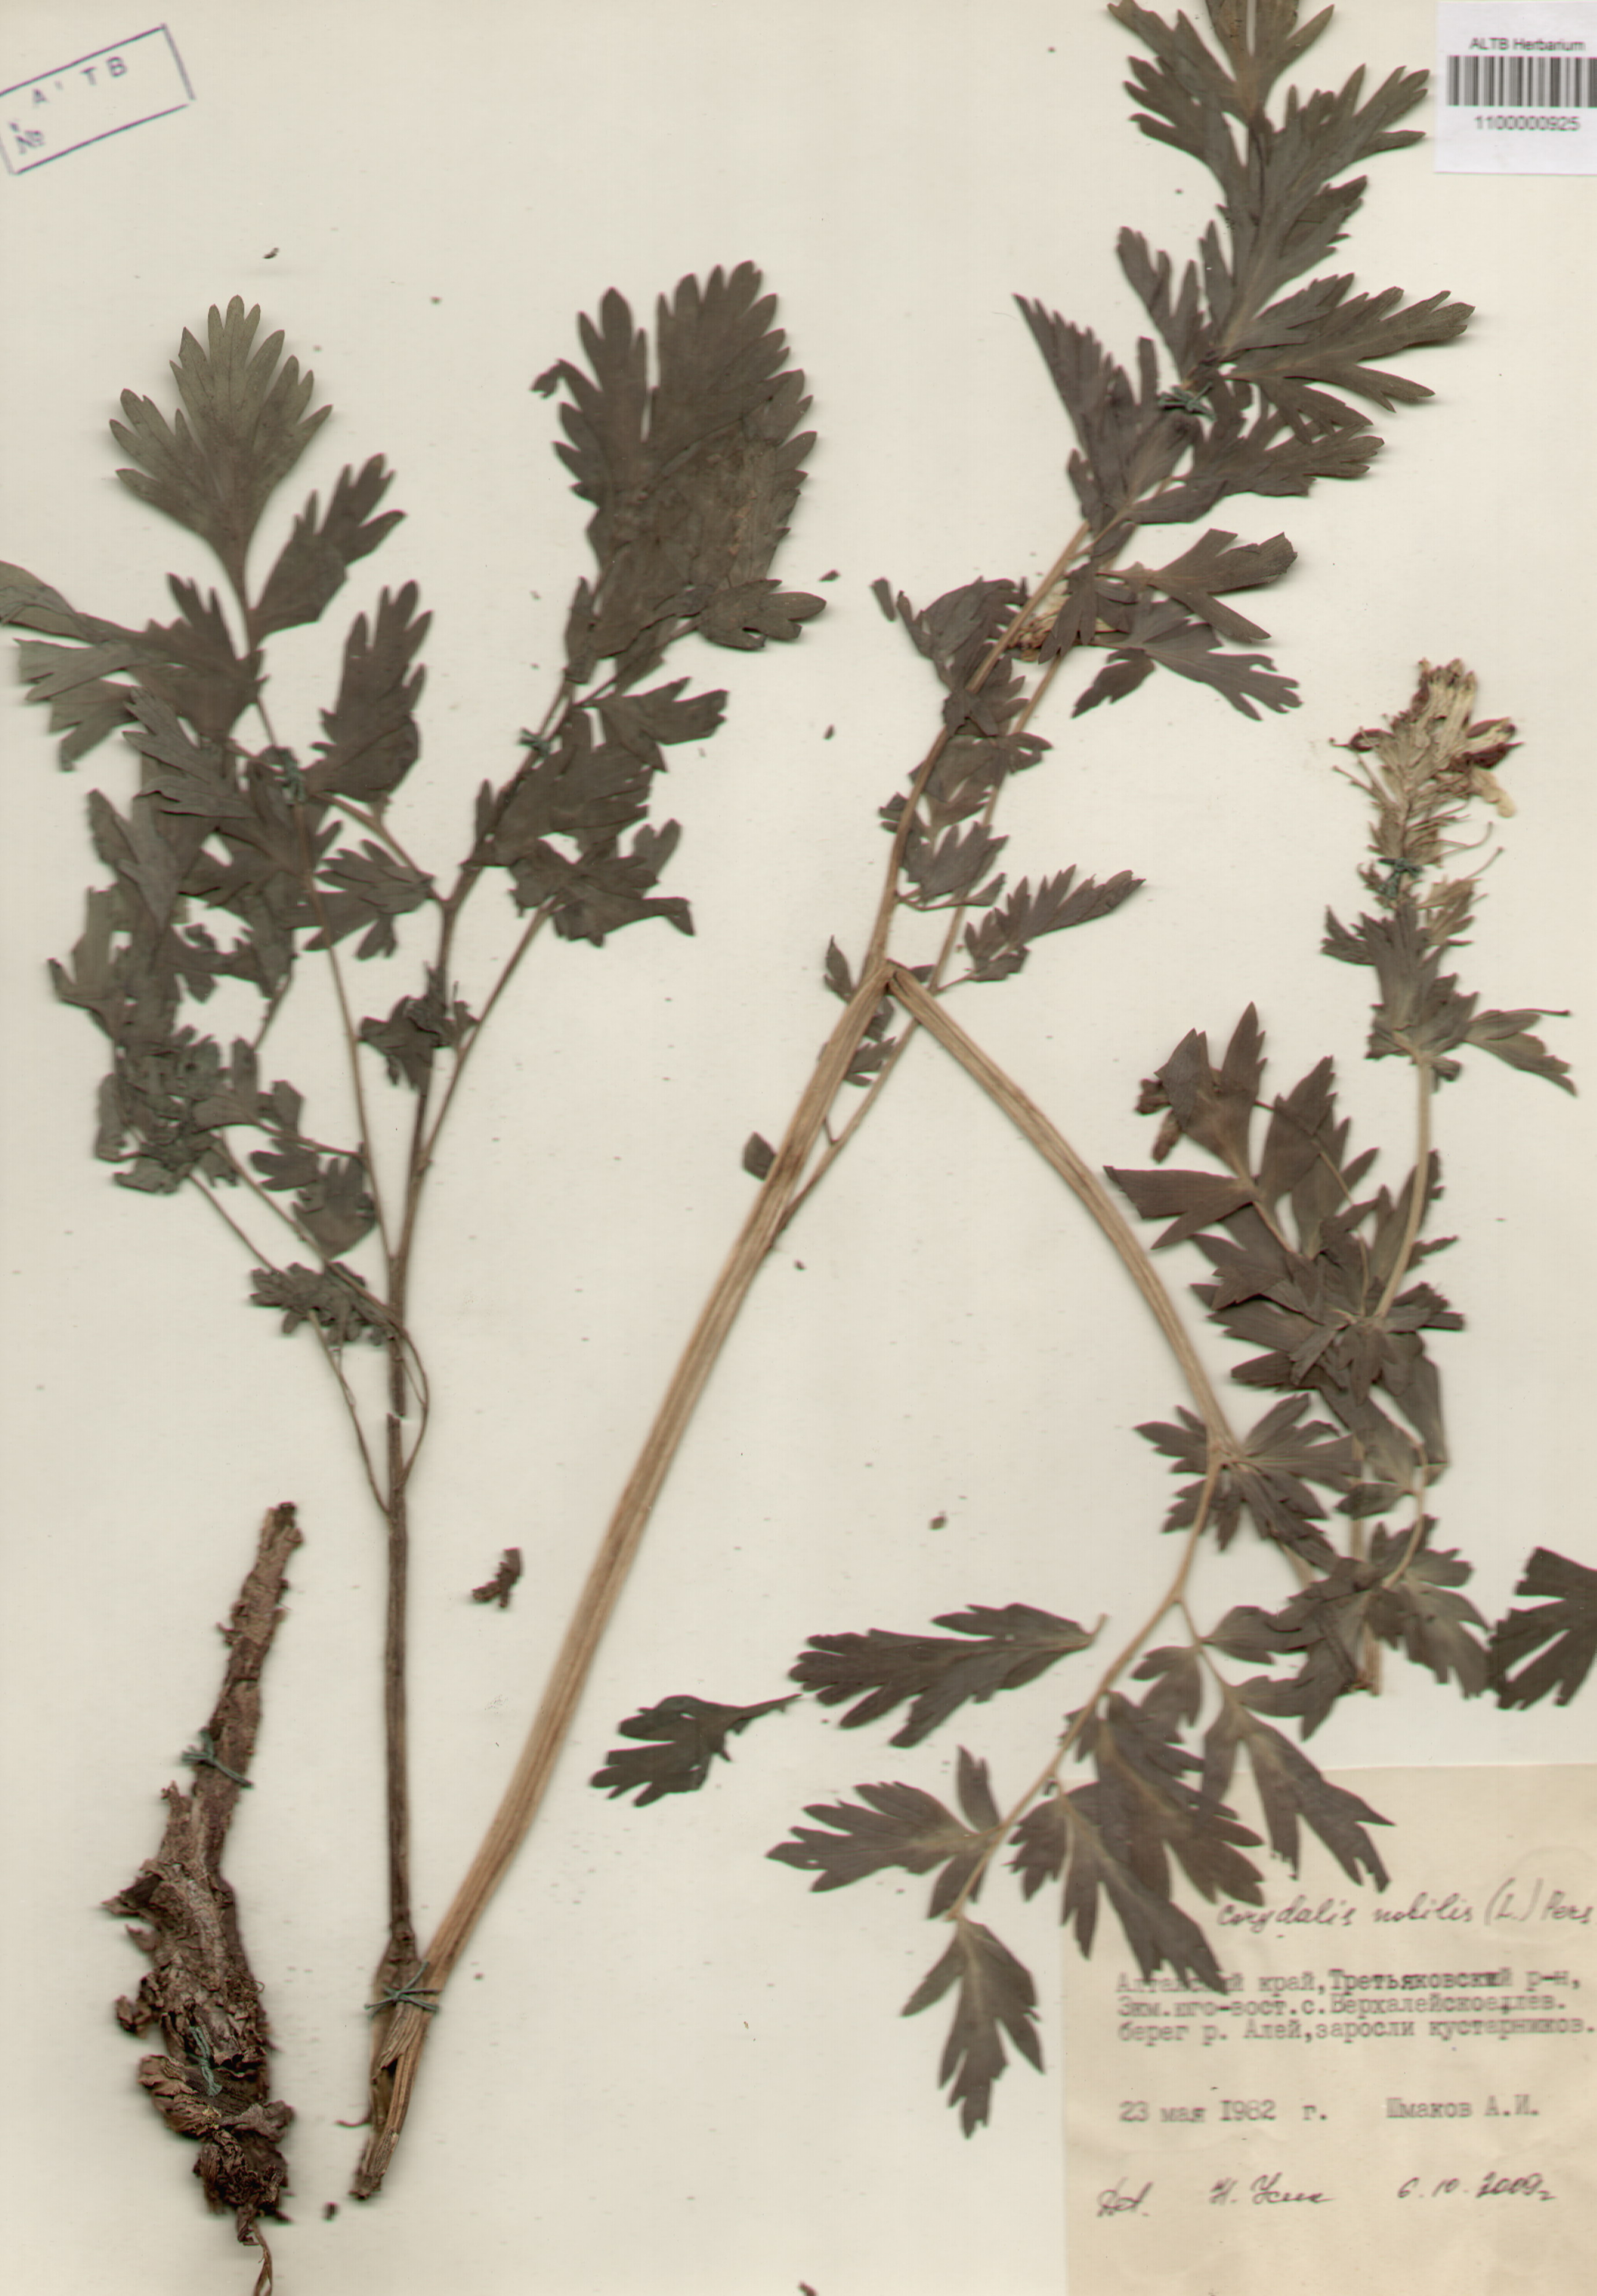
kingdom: Plantae
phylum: Tracheophyta
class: Magnoliopsida
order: Ranunculales
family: Papaveraceae
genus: Corydalis
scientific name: Corydalis nobilis
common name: Siberian corydalis
